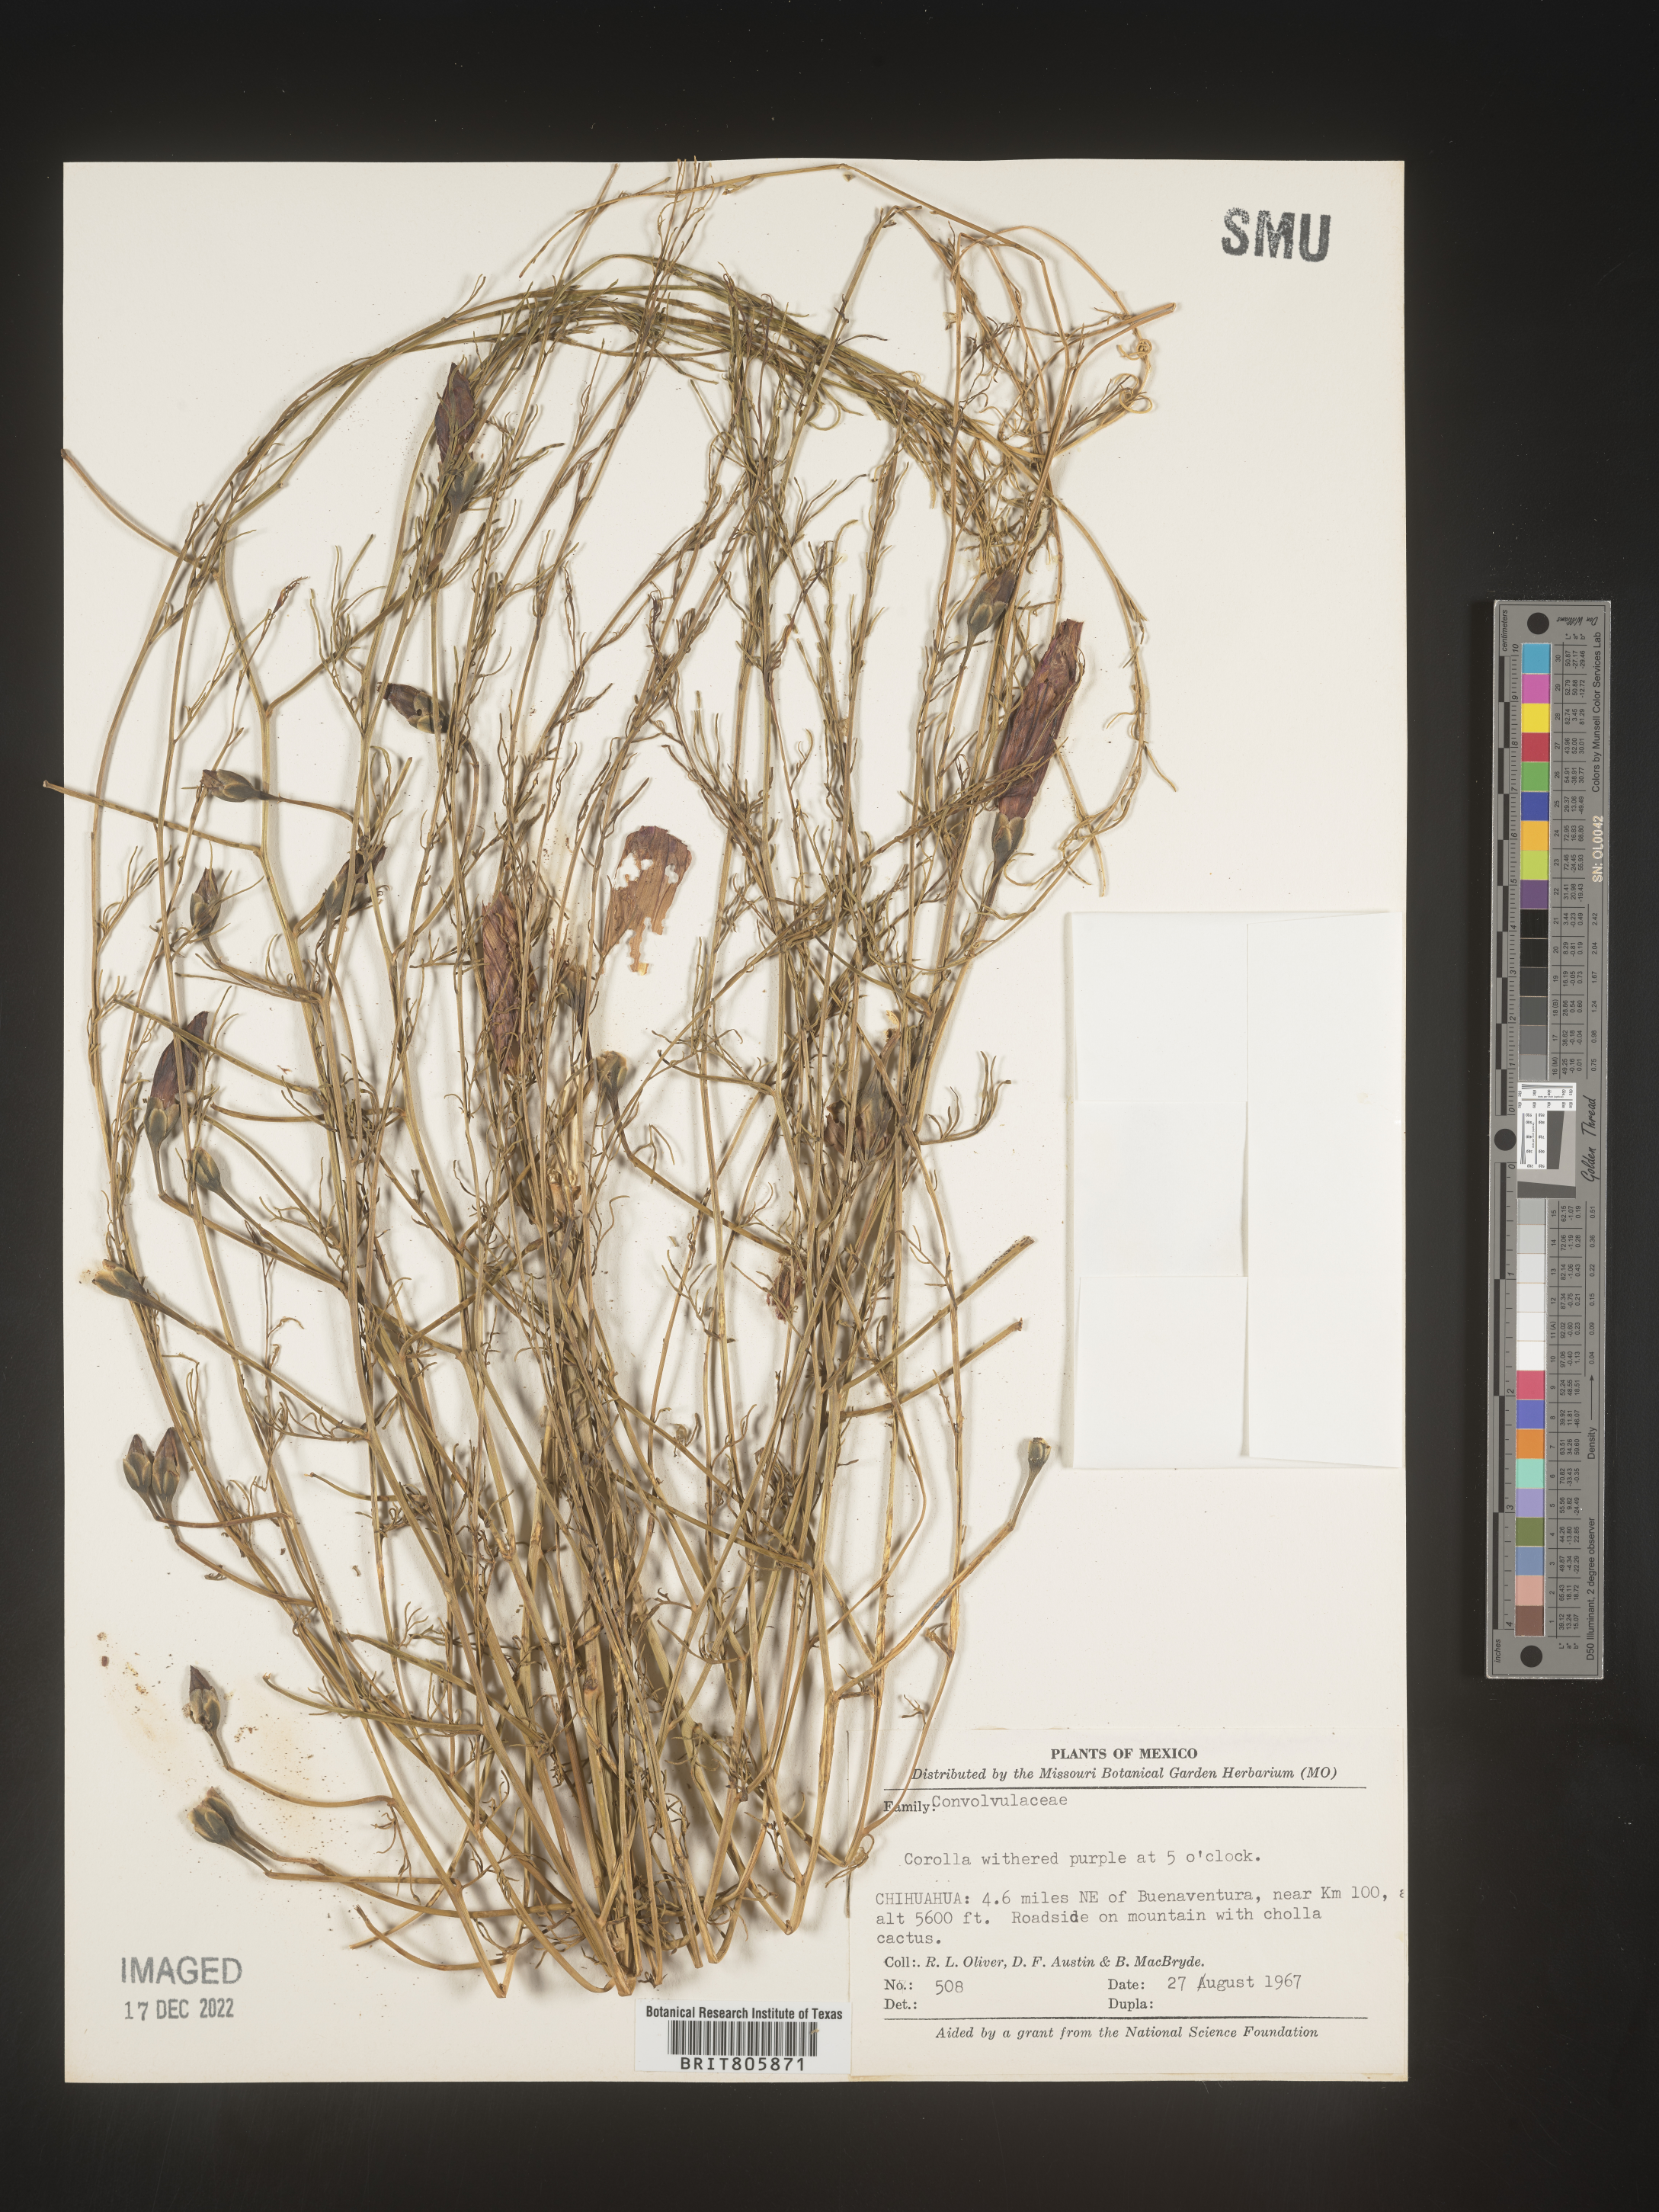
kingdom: Plantae
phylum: Tracheophyta
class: Magnoliopsida
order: Solanales
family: Convolvulaceae
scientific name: Convolvulaceae
